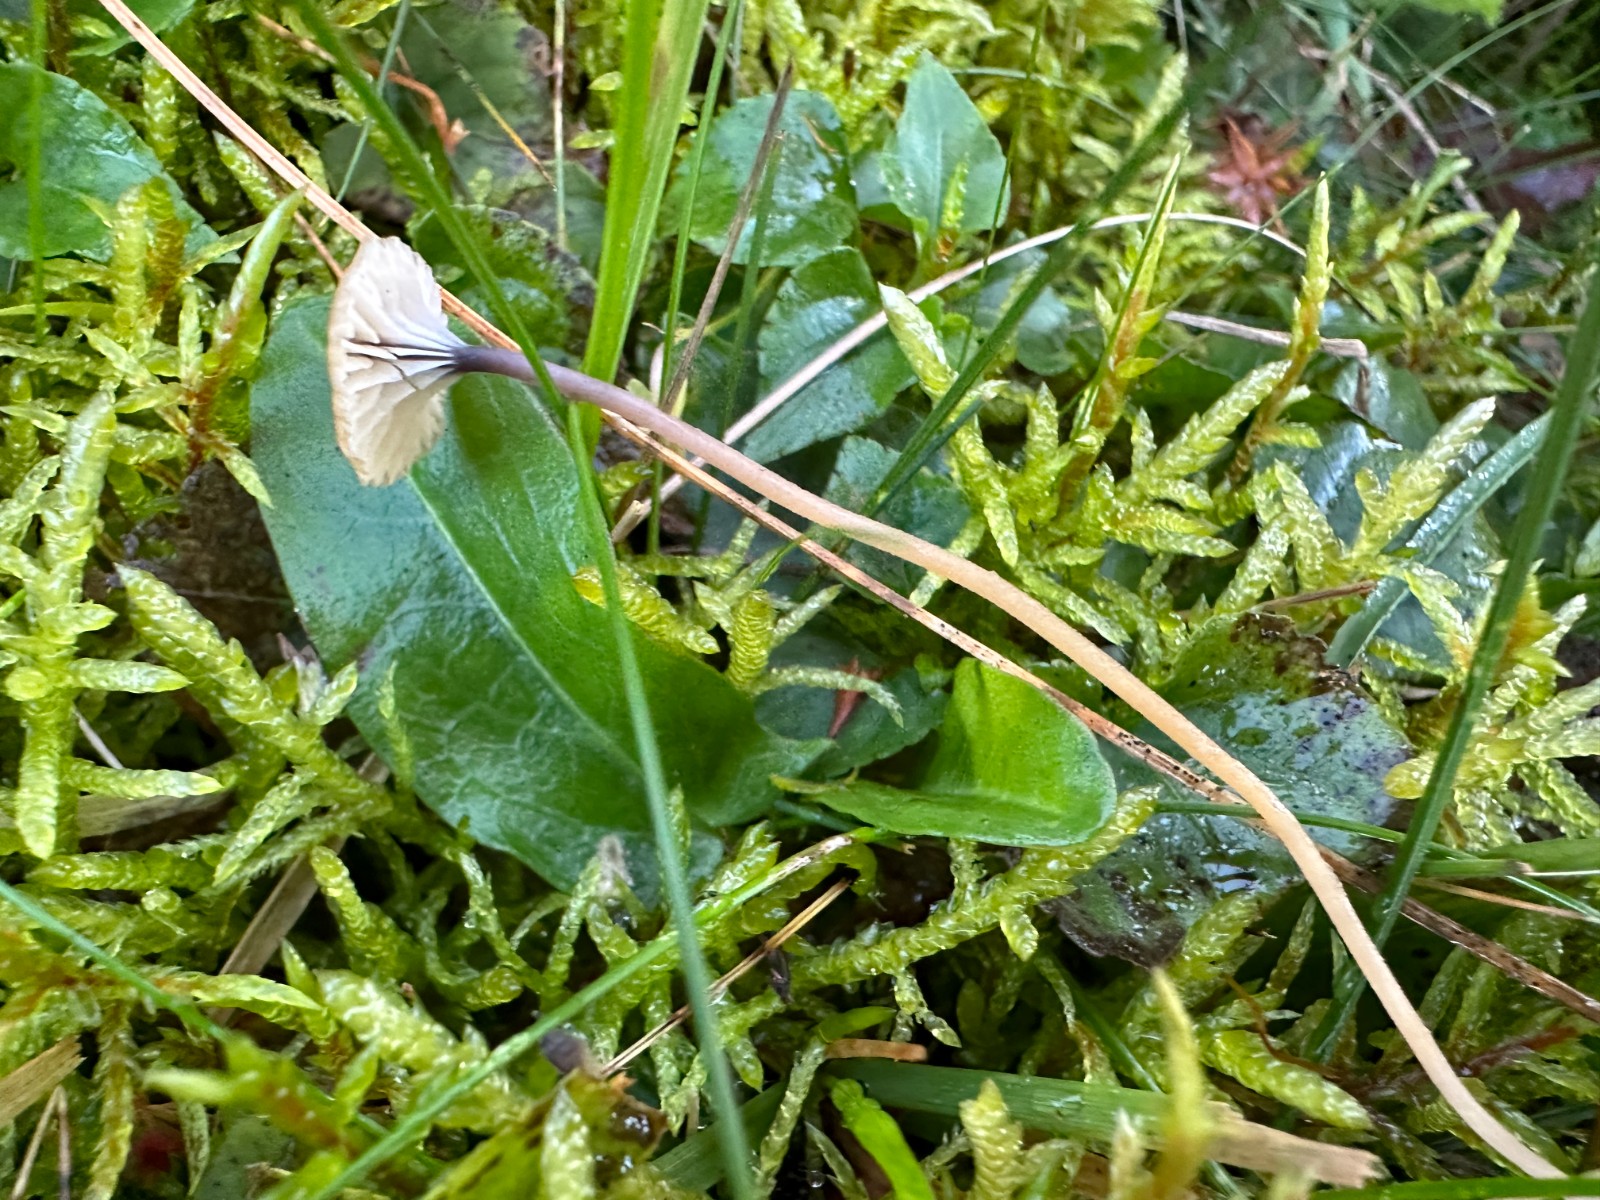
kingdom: Fungi
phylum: Basidiomycota
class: Agaricomycetes
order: Hymenochaetales
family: Rickenellaceae
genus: Rickenella
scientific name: Rickenella swartzii
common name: finstokket mosnavlehat
